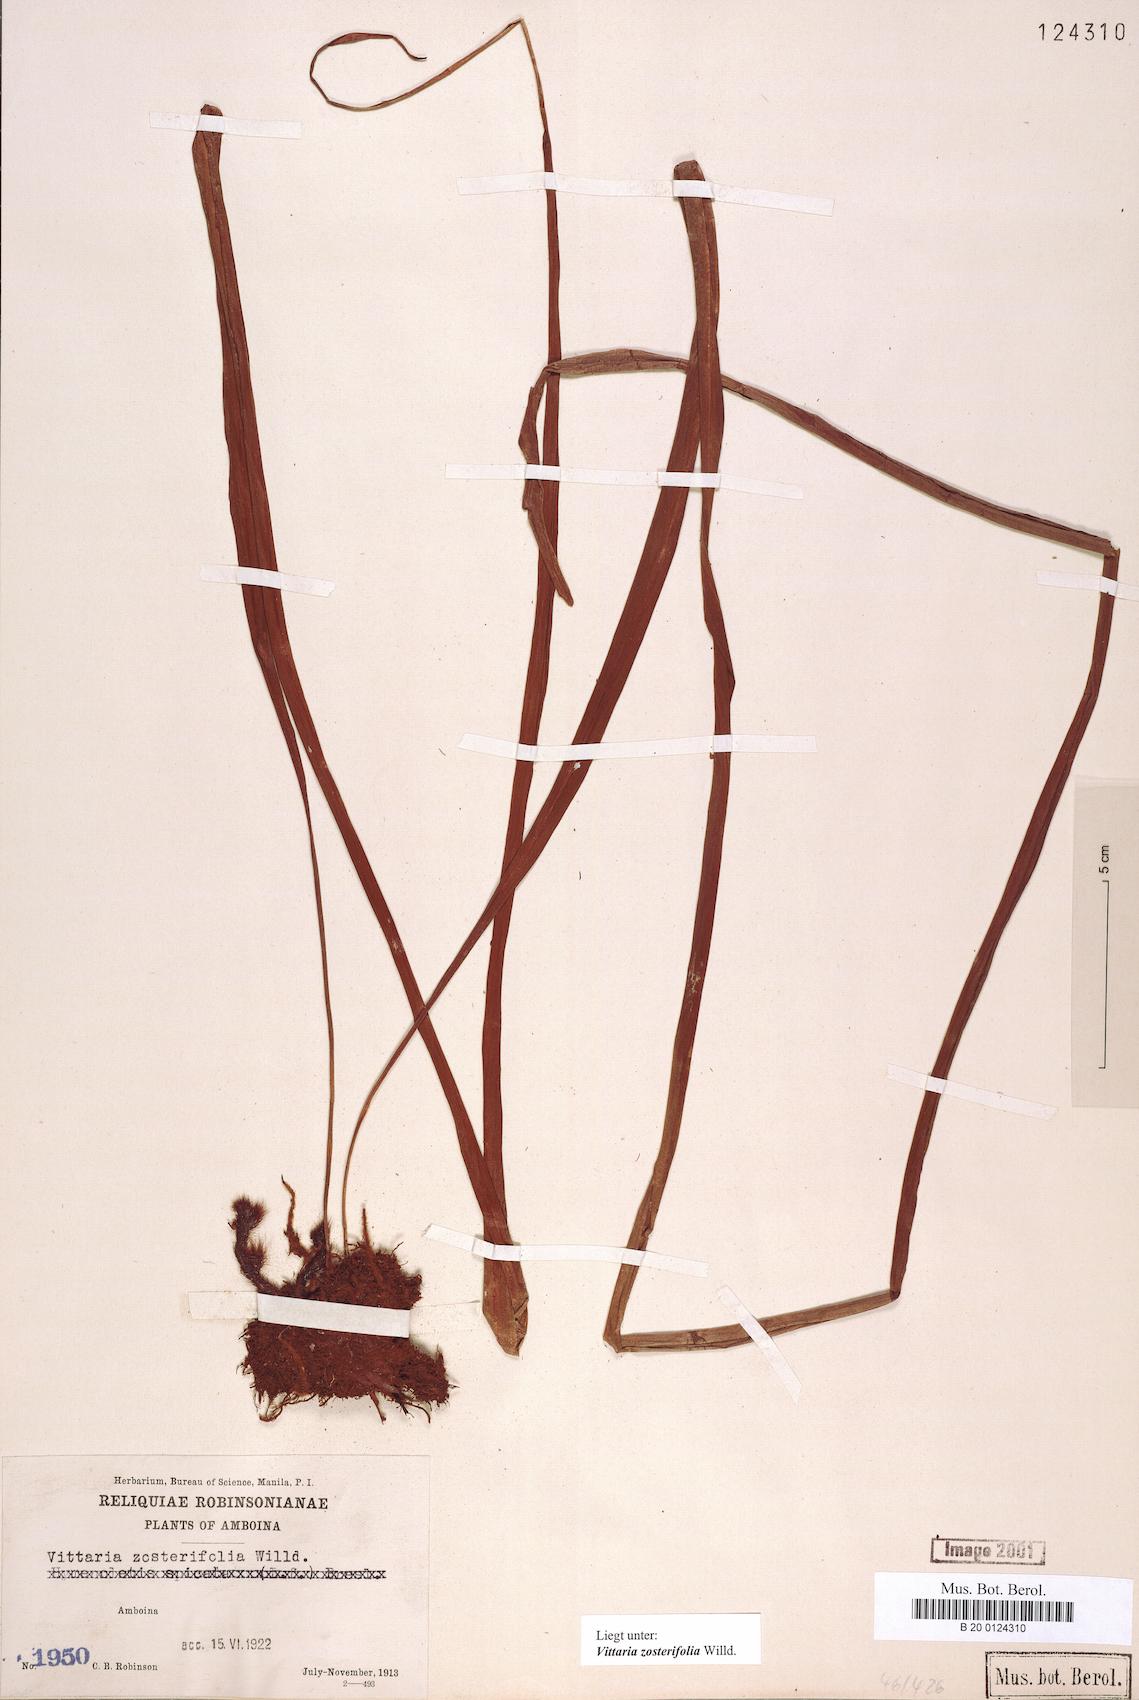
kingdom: Plantae
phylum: Tracheophyta
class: Polypodiopsida
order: Polypodiales
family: Pteridaceae
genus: Haplopteris
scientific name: Haplopteris zosterifolia
